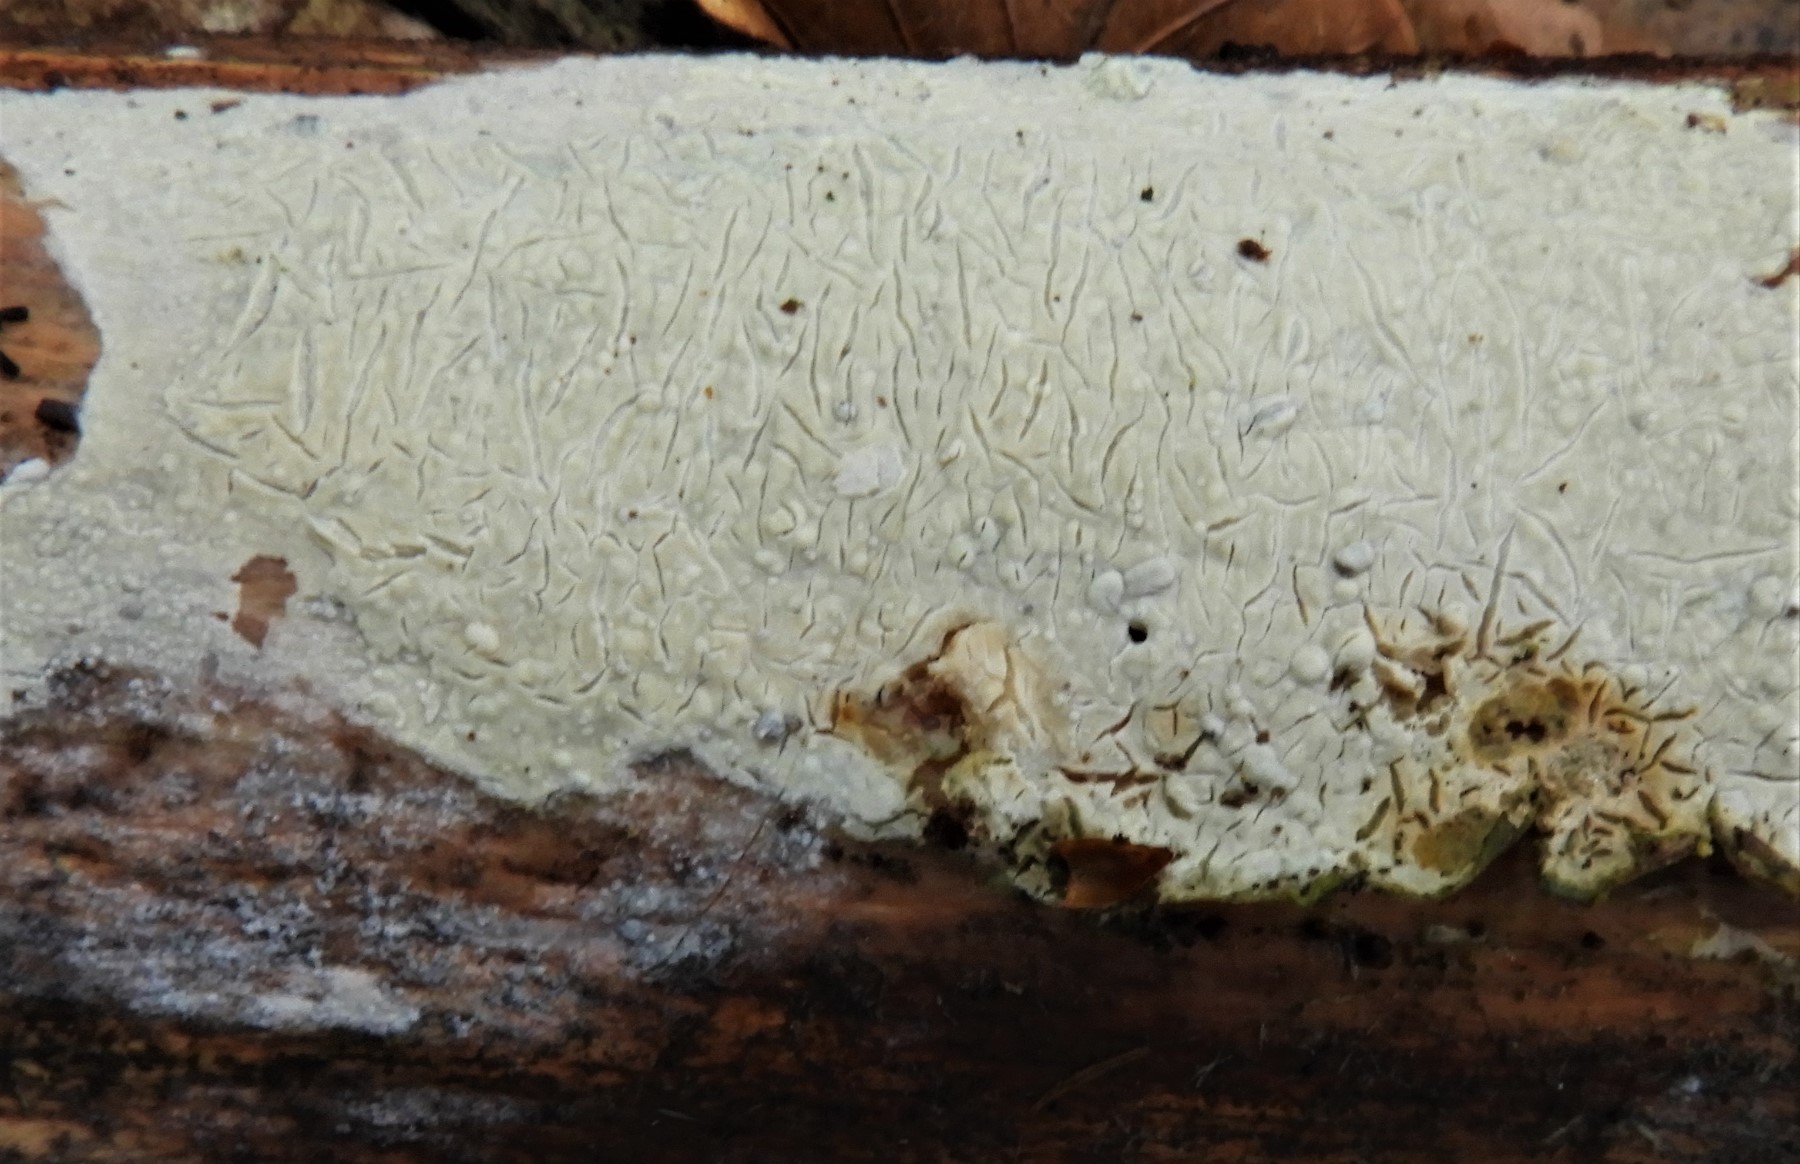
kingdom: Fungi
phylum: Basidiomycota
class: Agaricomycetes
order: Corticiales
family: Corticiaceae
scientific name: Corticiaceae
